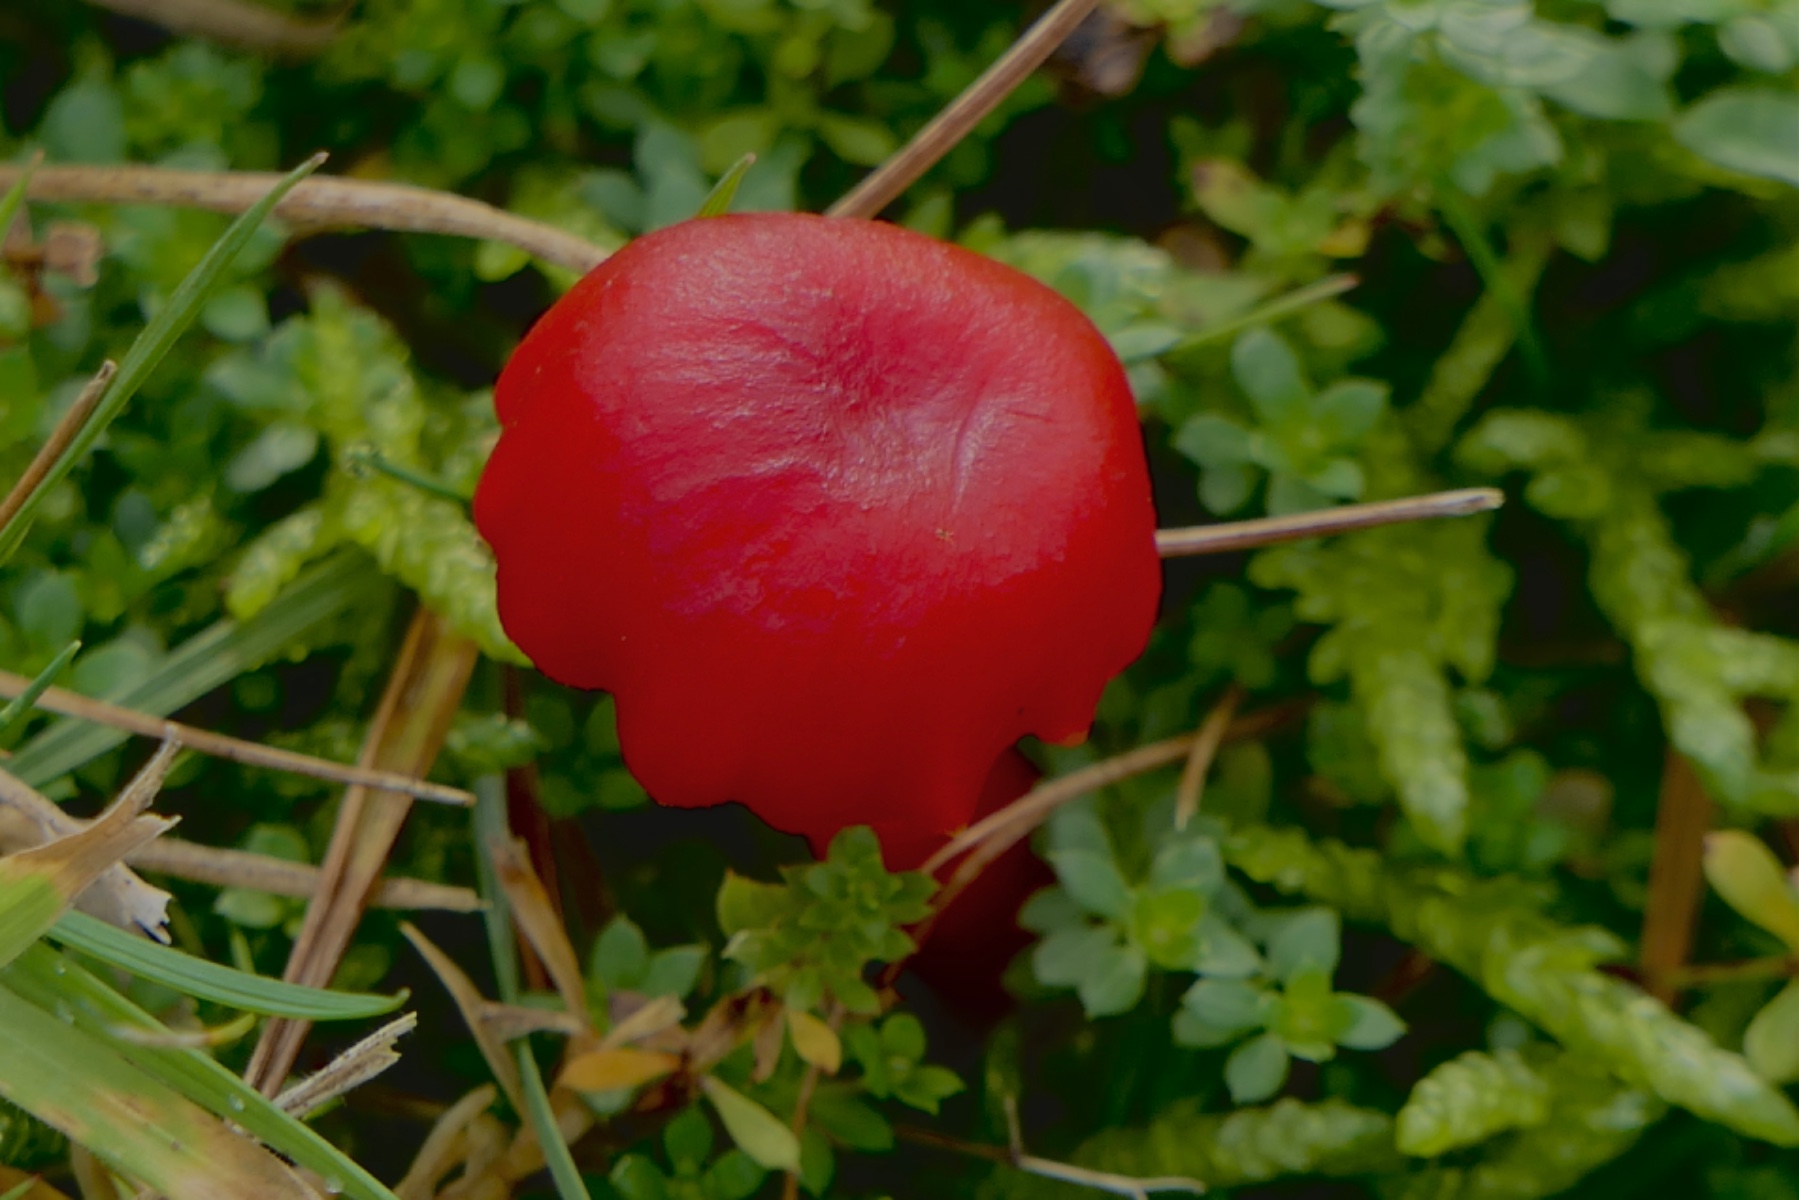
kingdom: Fungi
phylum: Basidiomycota
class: Agaricomycetes
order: Agaricales
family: Hygrophoraceae
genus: Hygrocybe
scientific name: Hygrocybe phaeococcinea
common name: sortdugget vokshat
